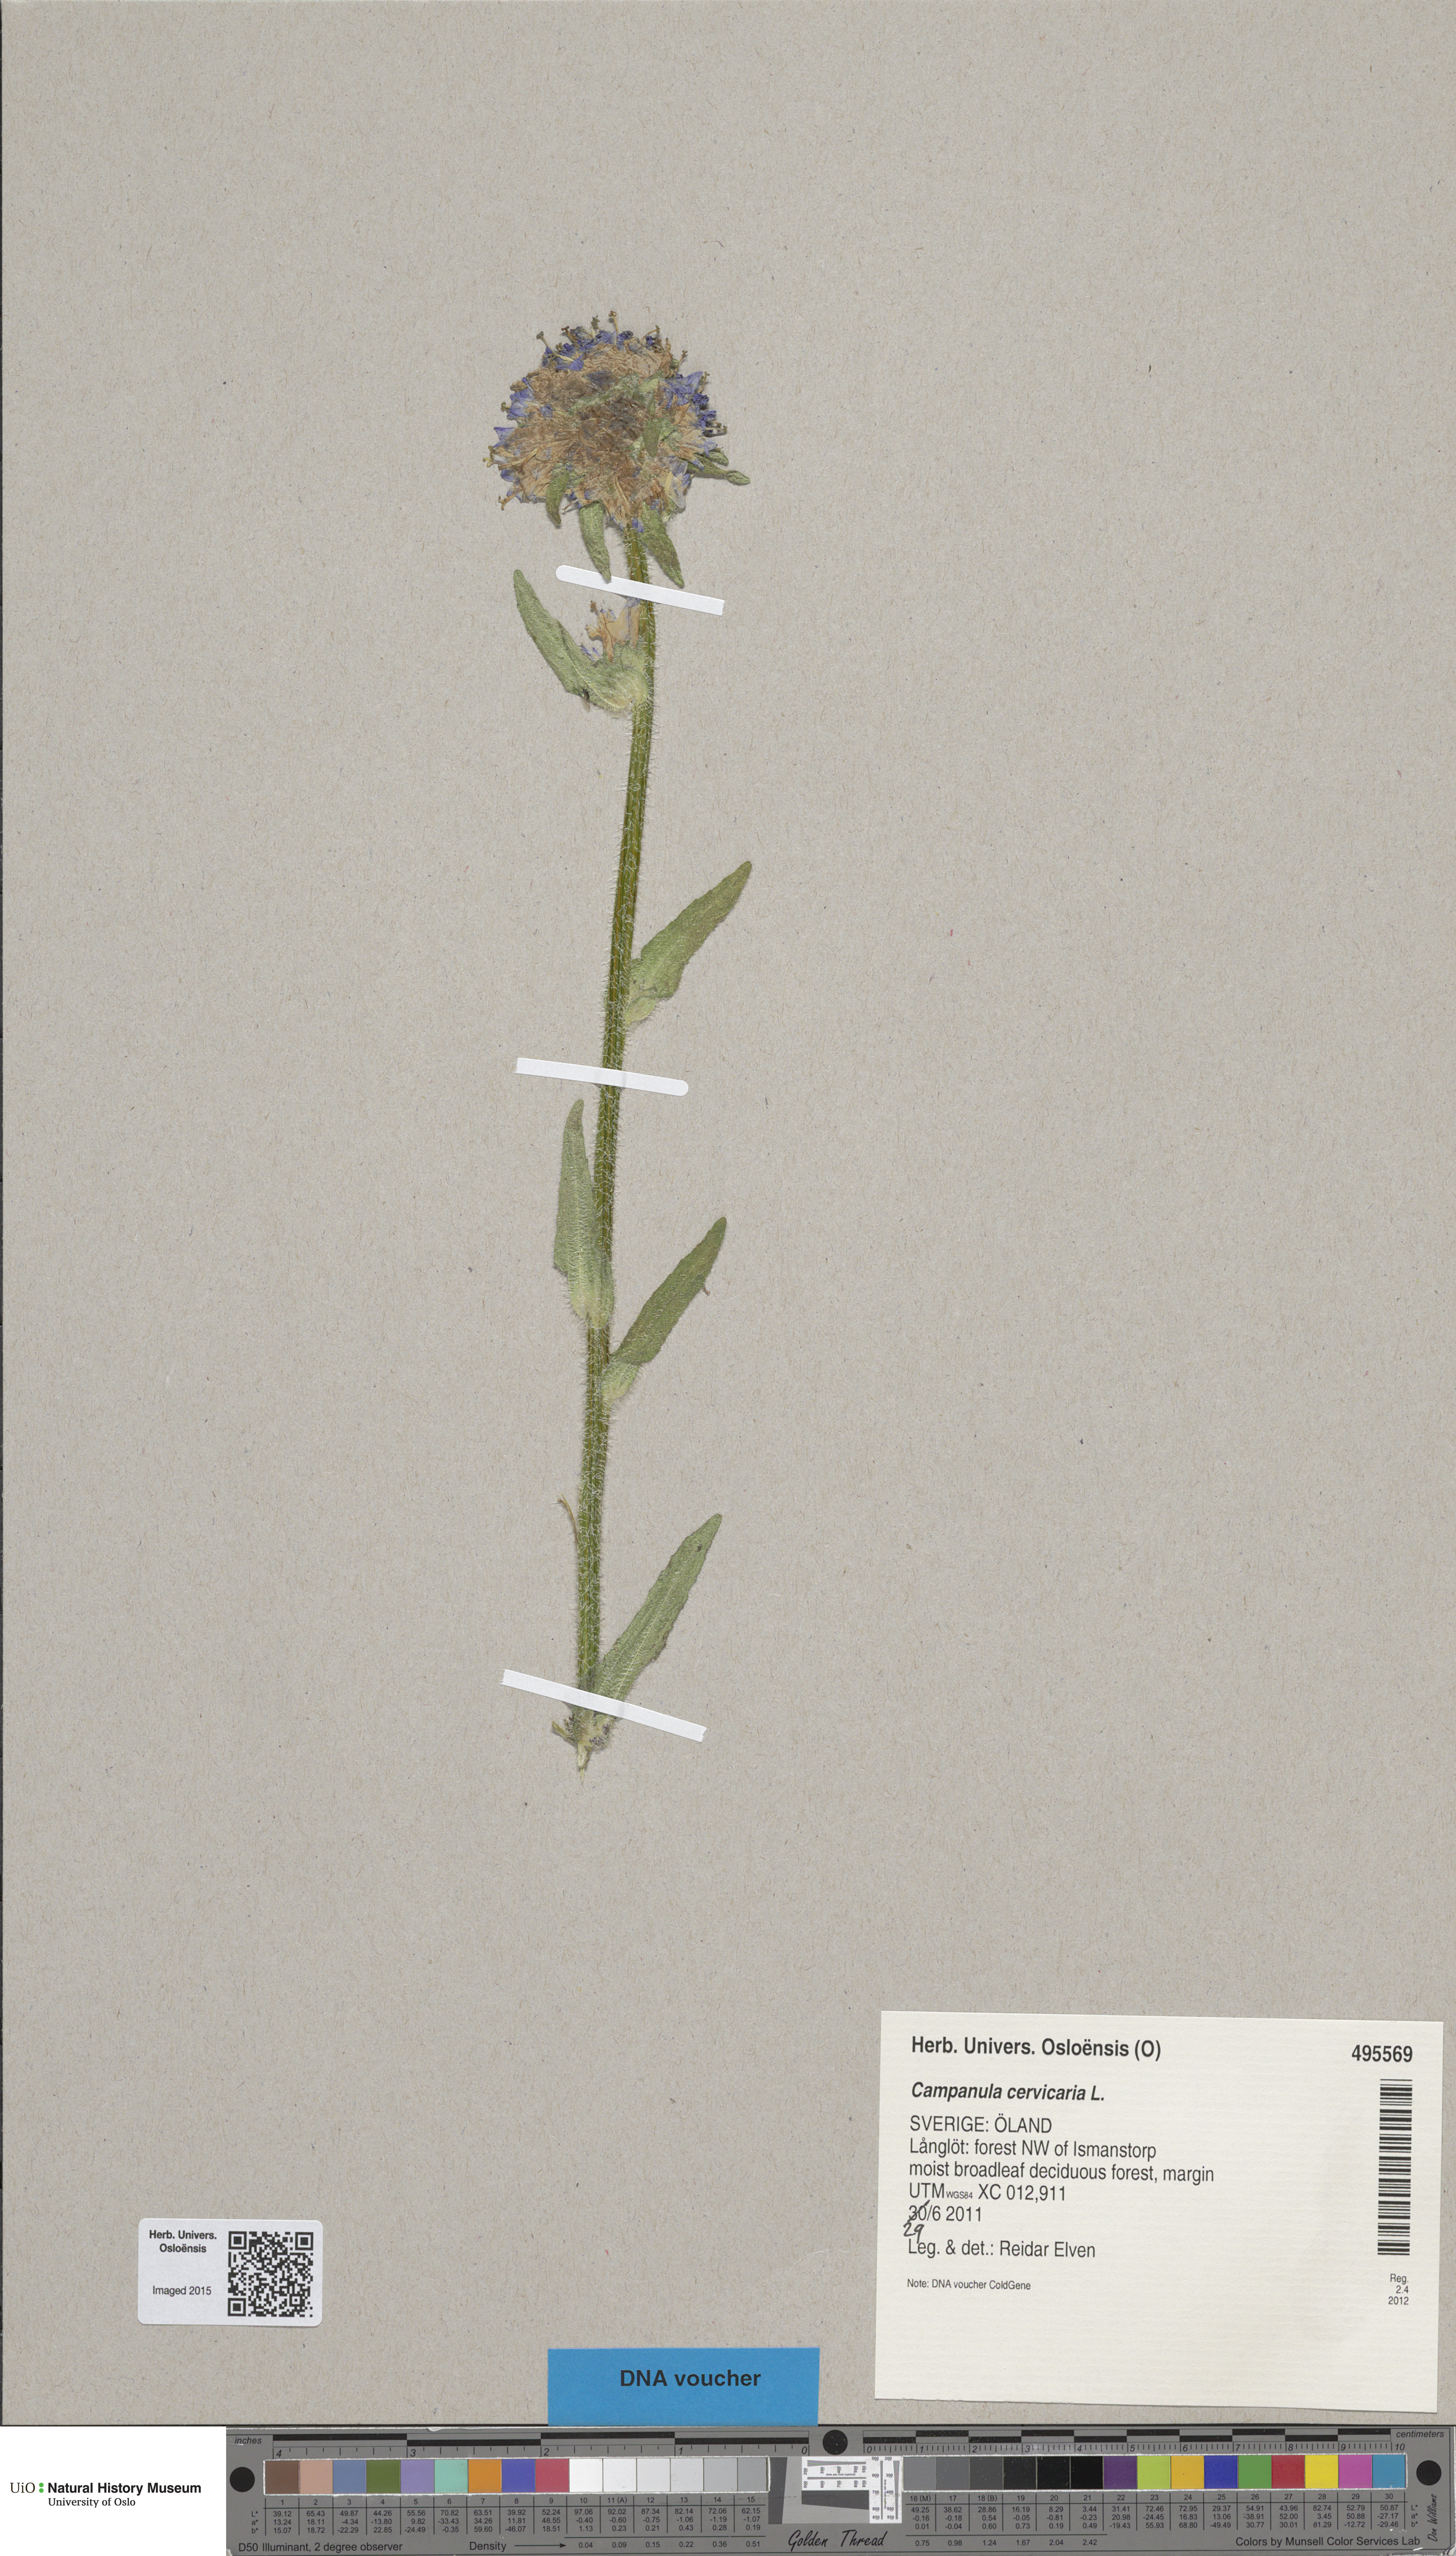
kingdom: Plantae
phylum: Tracheophyta
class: Magnoliopsida
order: Asterales
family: Campanulaceae
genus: Campanula
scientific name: Campanula cervicaria
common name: Bristly bellflower
